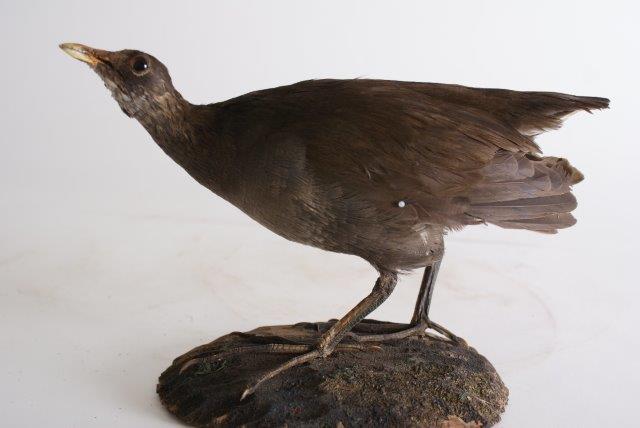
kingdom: Animalia
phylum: Chordata
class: Aves
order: Gruiformes
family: Rallidae
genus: Gallinula
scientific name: Gallinula chloropus
